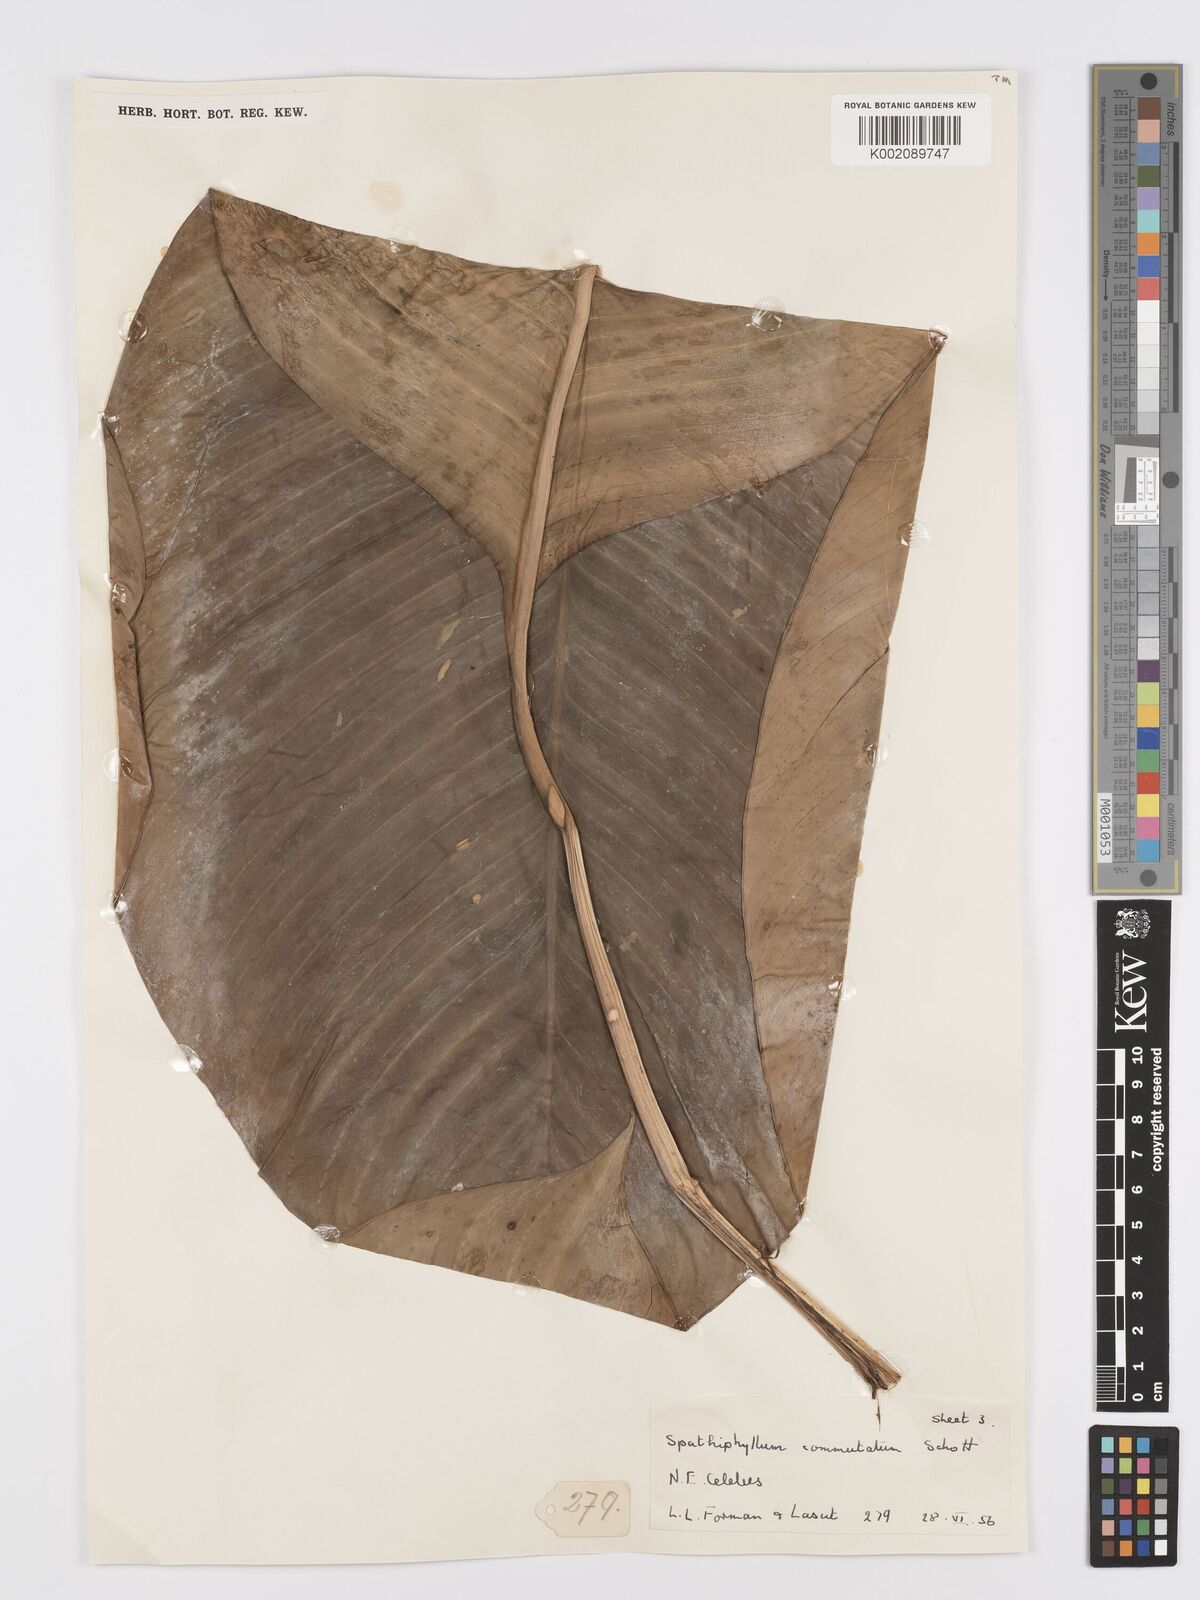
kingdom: Plantae
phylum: Tracheophyta
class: Liliopsida
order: Alismatales
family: Araceae
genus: Spathiphyllum
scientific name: Spathiphyllum commutatum
